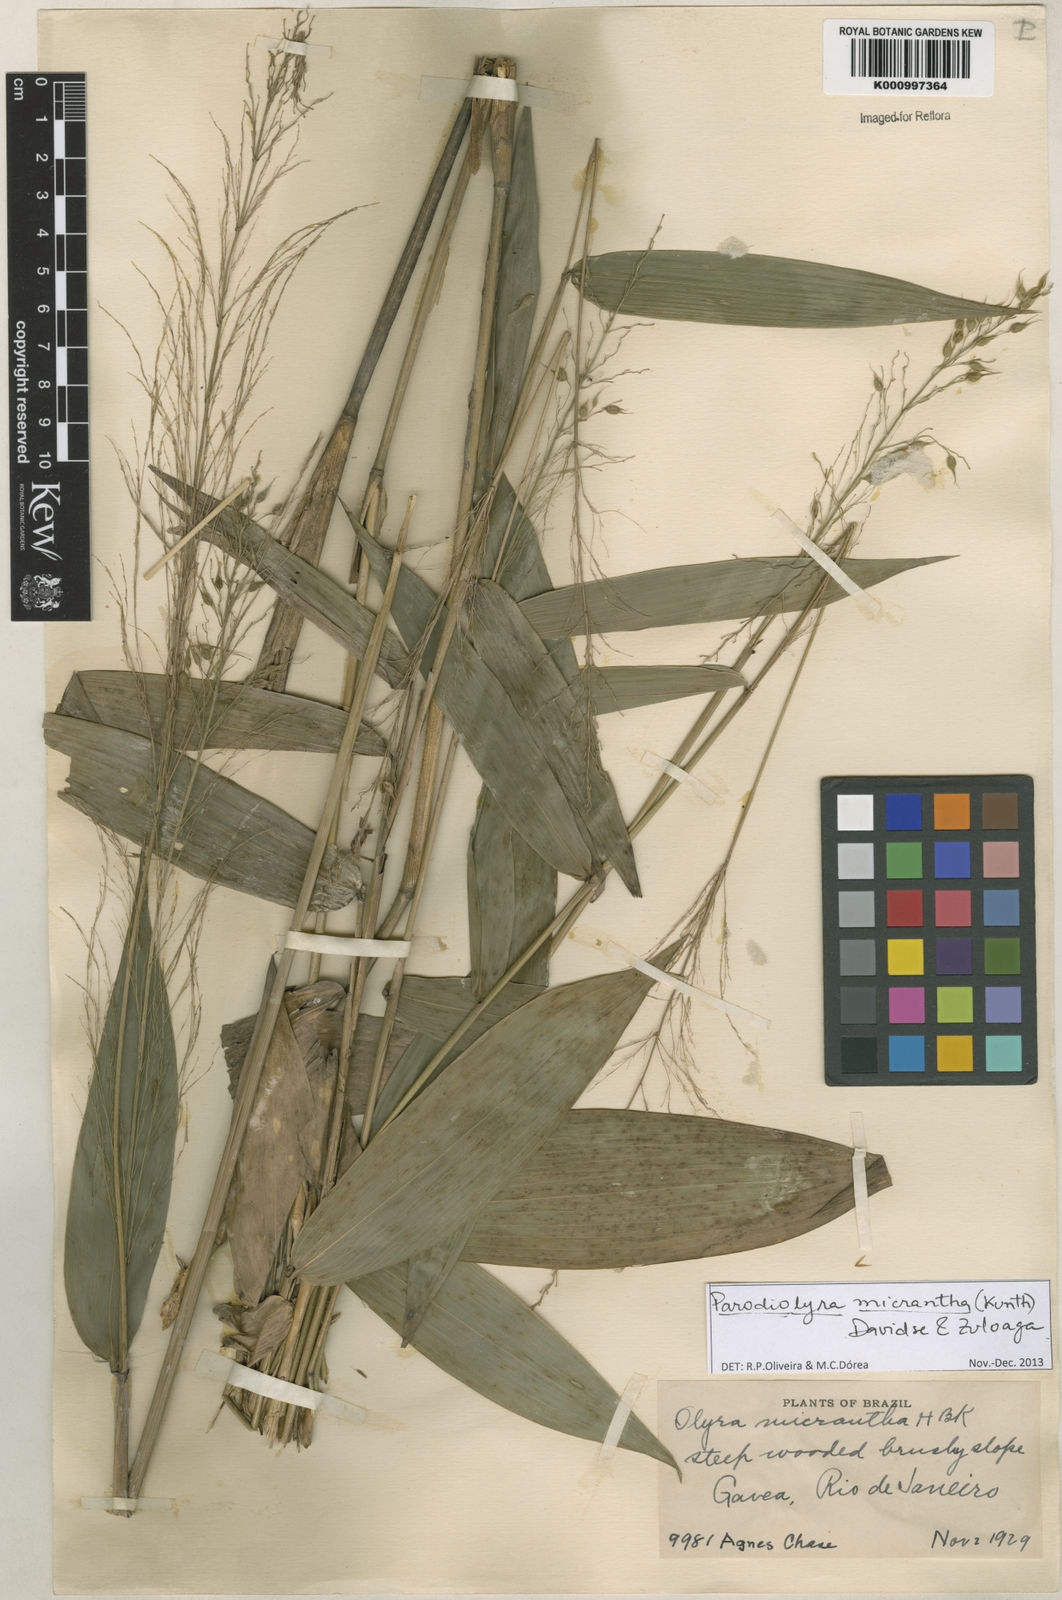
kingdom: Plantae
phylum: Tracheophyta
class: Liliopsida
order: Poales
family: Poaceae
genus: Taquara
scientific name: Taquara micrantha
